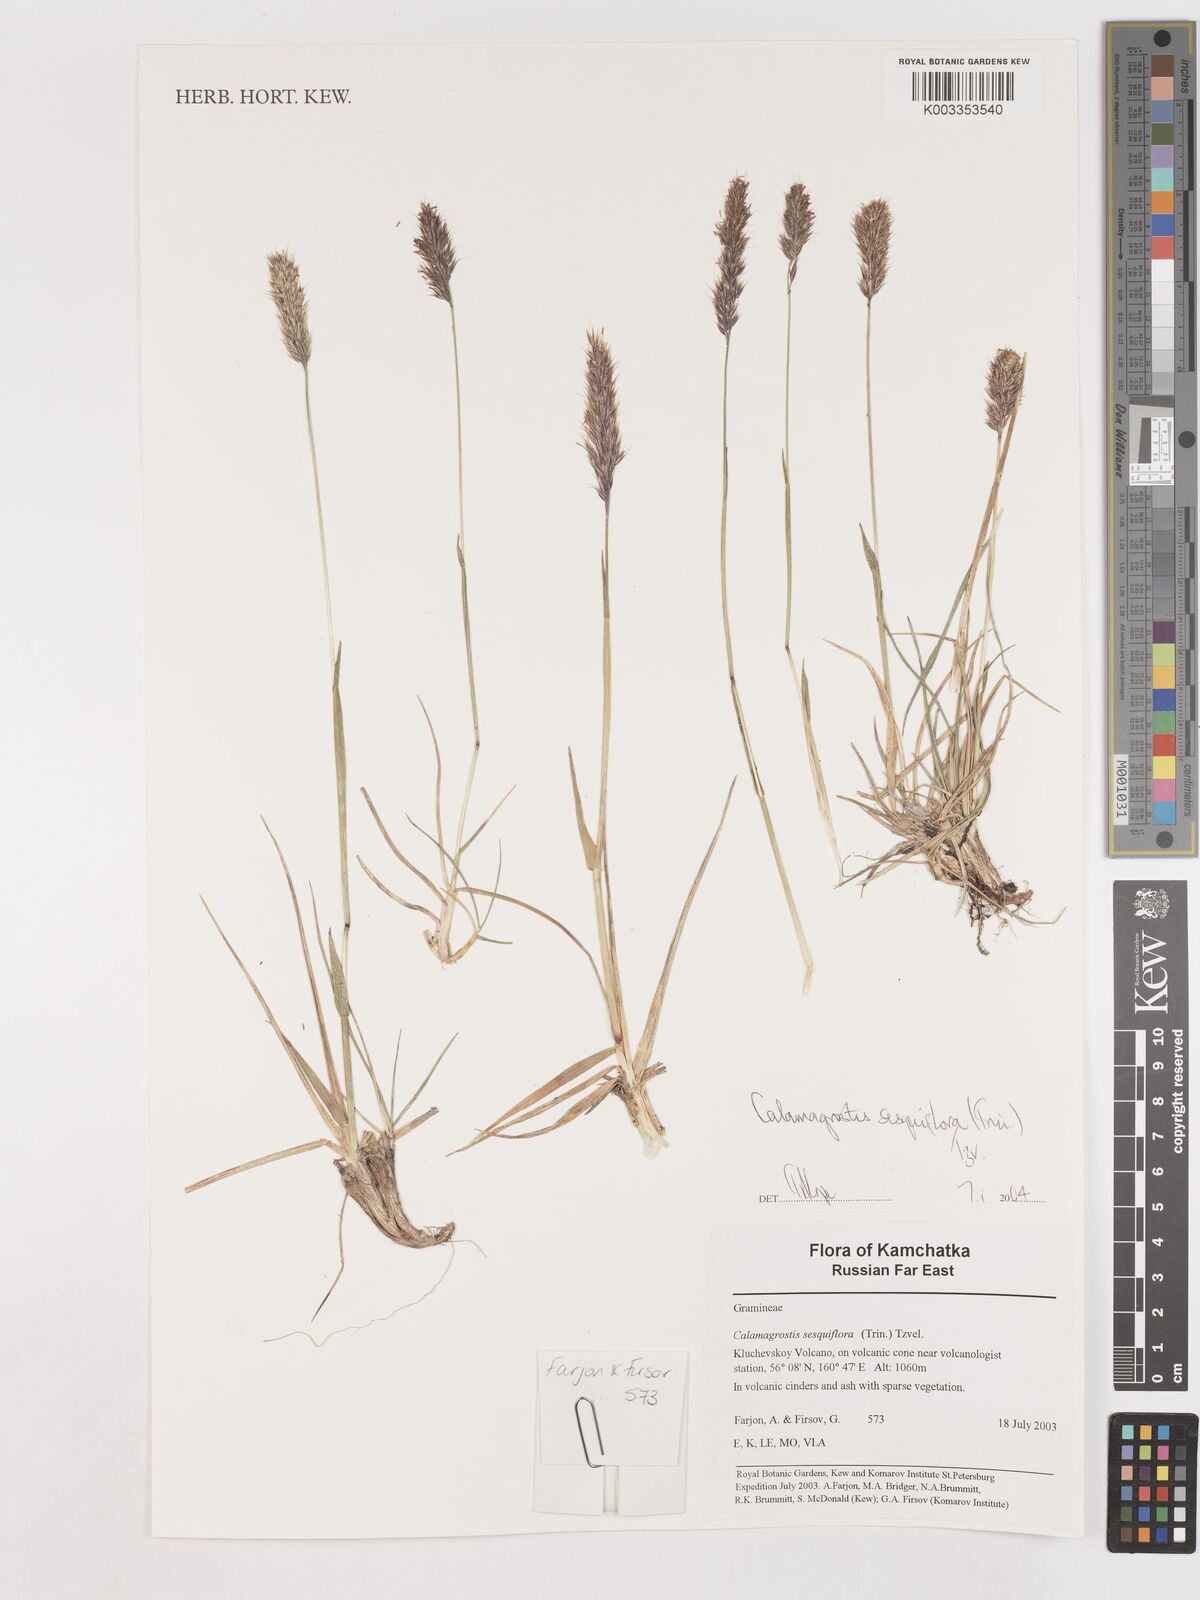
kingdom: Plantae
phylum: Tracheophyta
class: Liliopsida
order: Poales
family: Poaceae
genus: Podagrostis
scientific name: Podagrostis sesquiflora
